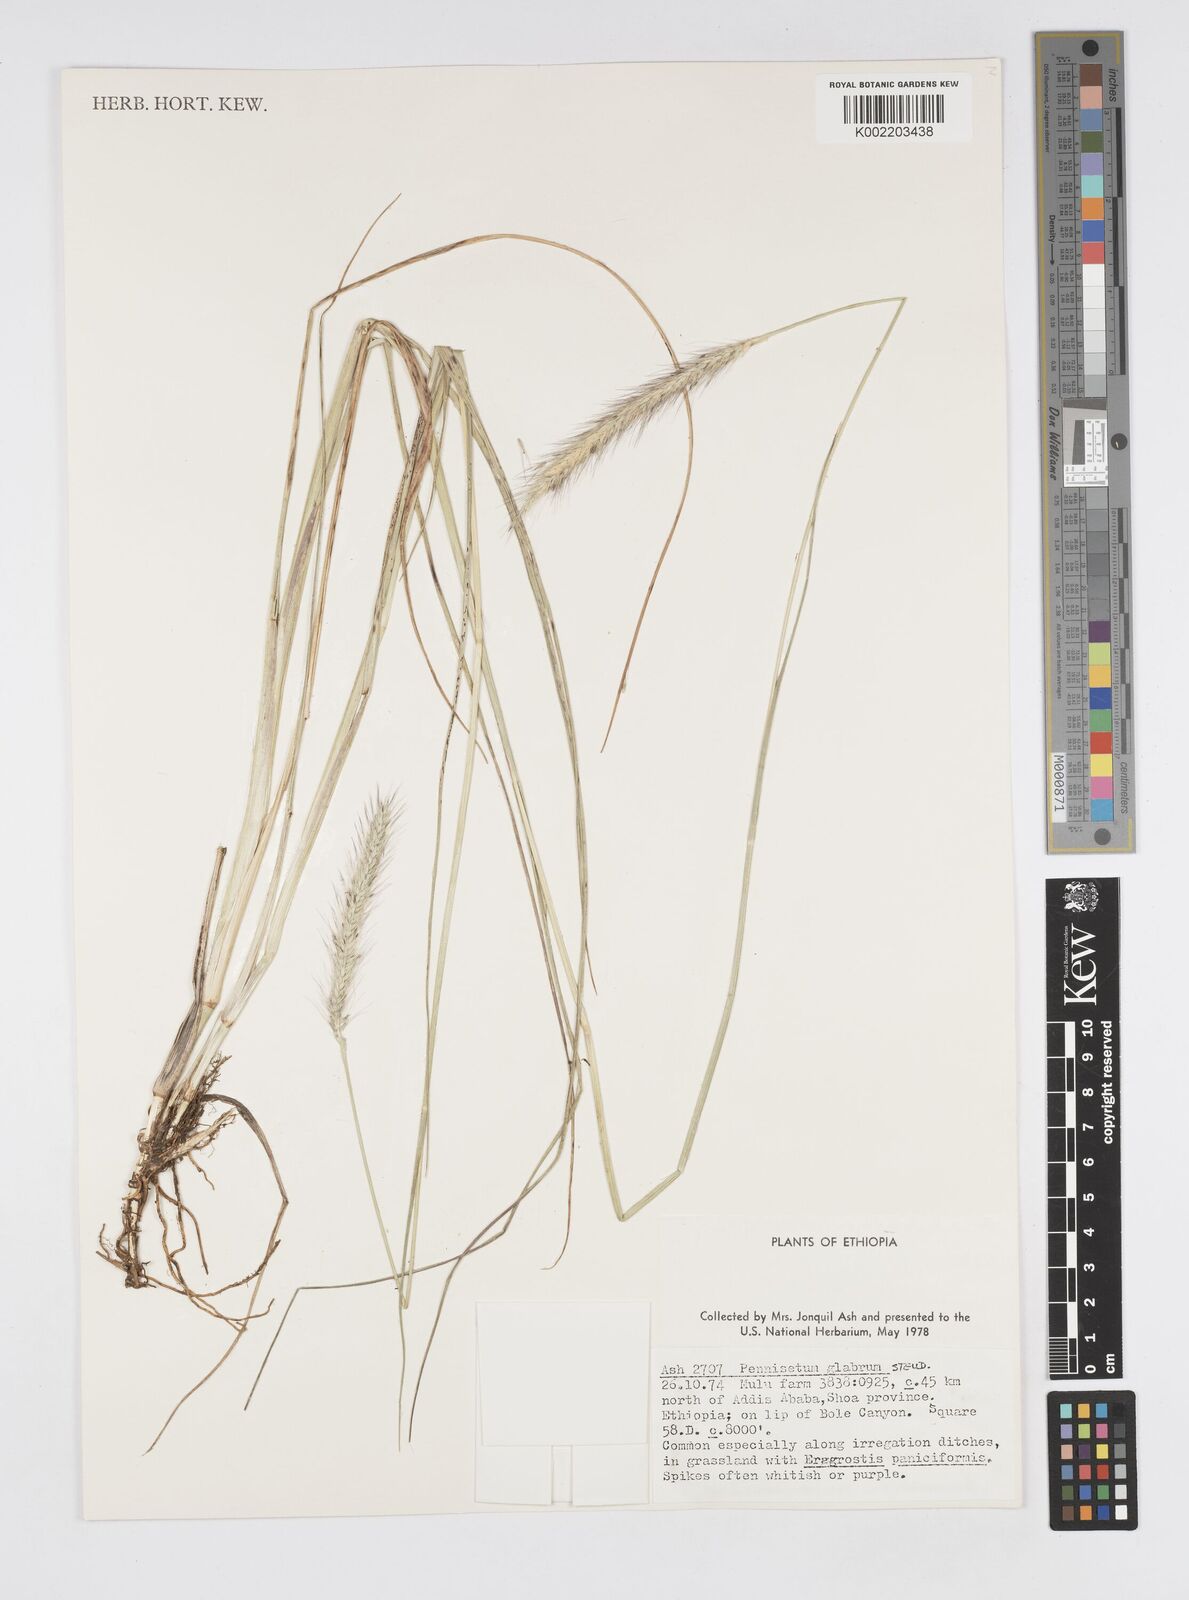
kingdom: Plantae
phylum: Tracheophyta
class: Liliopsida
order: Poales
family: Poaceae
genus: Cenchrus
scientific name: Cenchrus geniculatus
